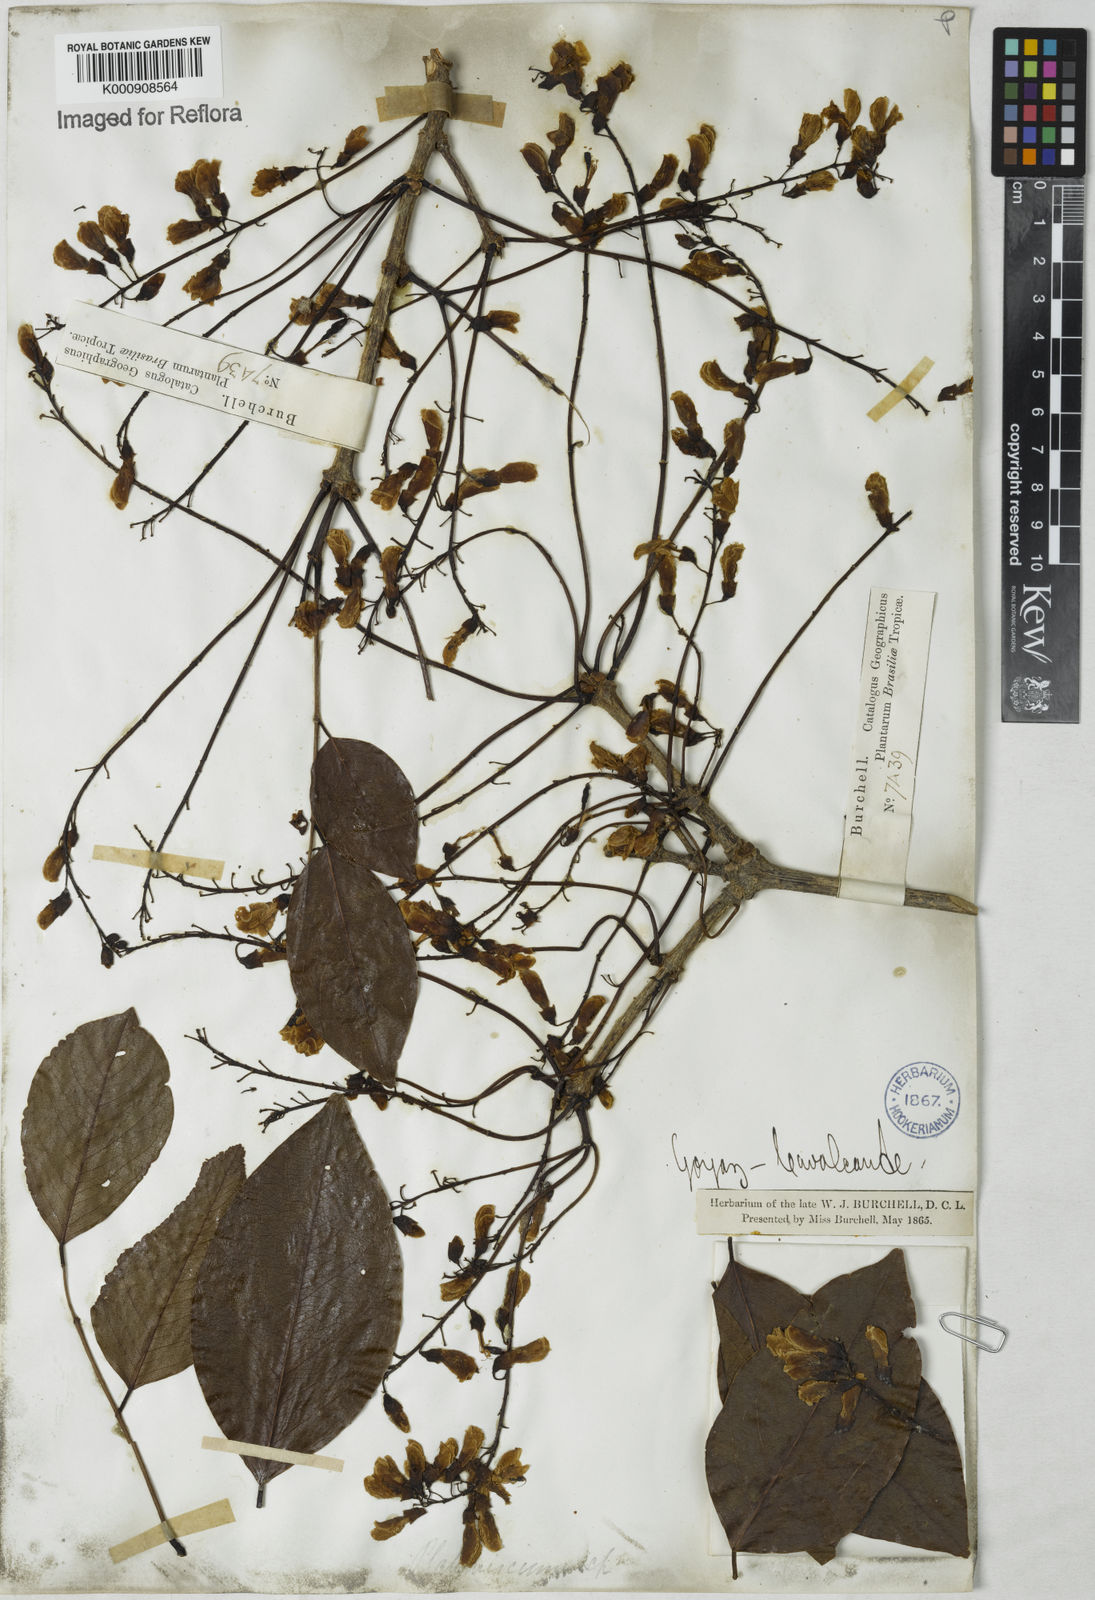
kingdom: Plantae
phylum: Tracheophyta
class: Magnoliopsida
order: Fabales
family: Fabaceae
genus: Platymiscium
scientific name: Platymiscium
